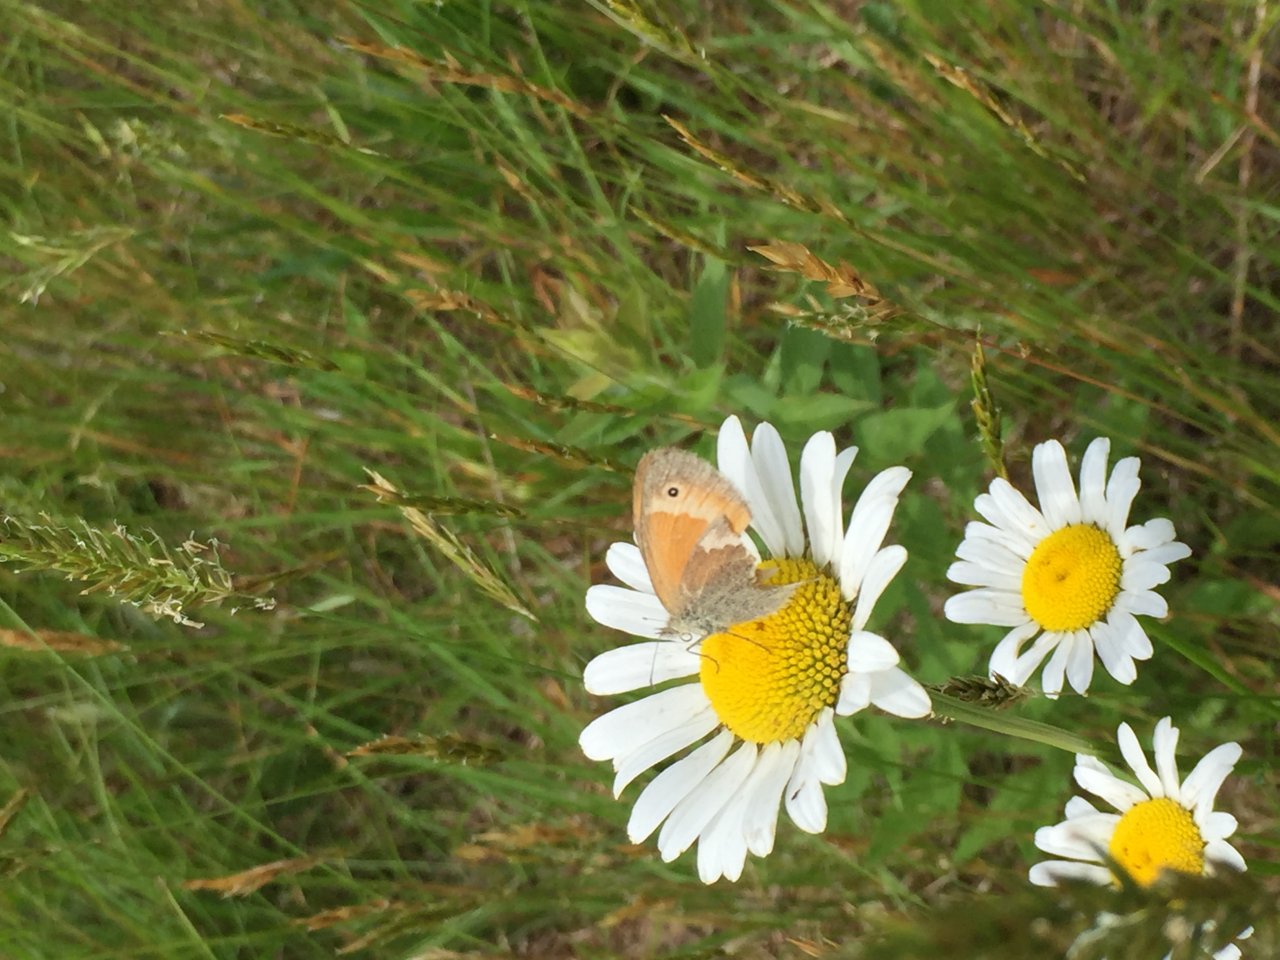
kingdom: Animalia
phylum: Arthropoda
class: Insecta
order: Lepidoptera
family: Nymphalidae
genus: Coenonympha
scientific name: Coenonympha tullia
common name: Large Heath
